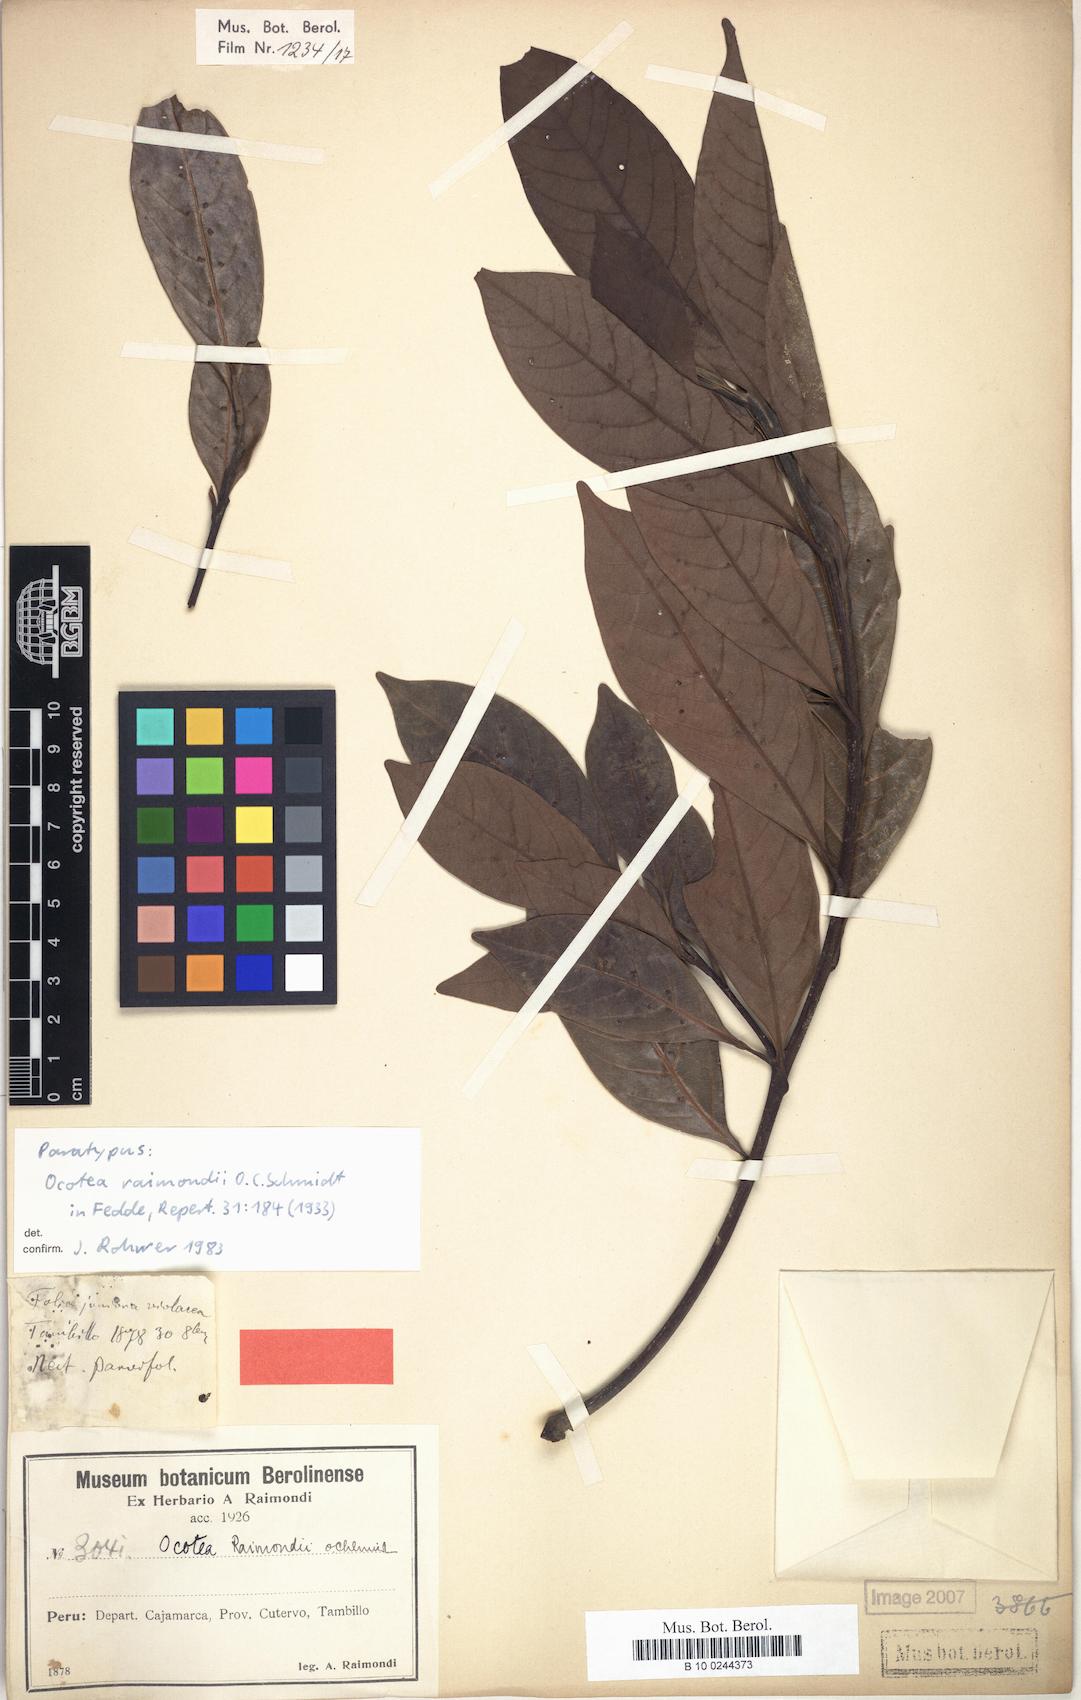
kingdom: Plantae
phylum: Tracheophyta
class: Magnoliopsida
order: Laurales
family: Lauraceae
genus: Ocotea
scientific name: Ocotea cuneifolia
